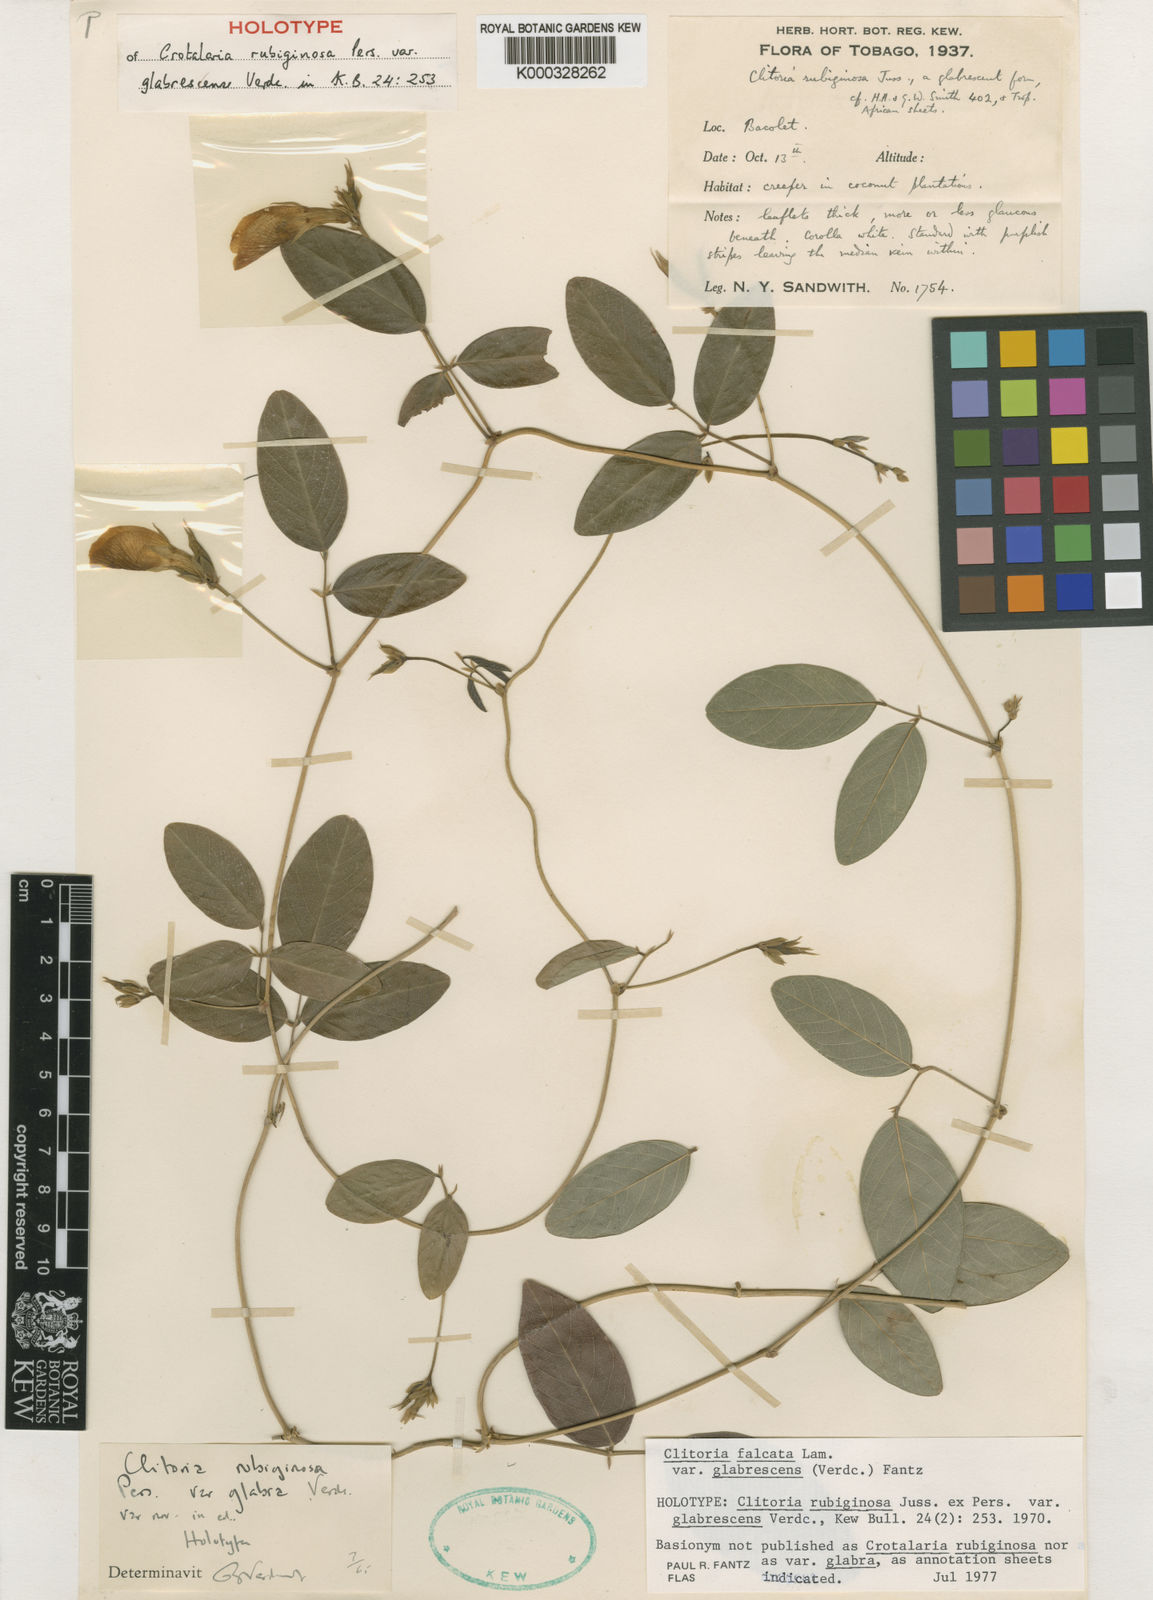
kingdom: Plantae
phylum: Tracheophyta
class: Magnoliopsida
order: Fabales
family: Fabaceae
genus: Clitoria
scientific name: Clitoria falcata
